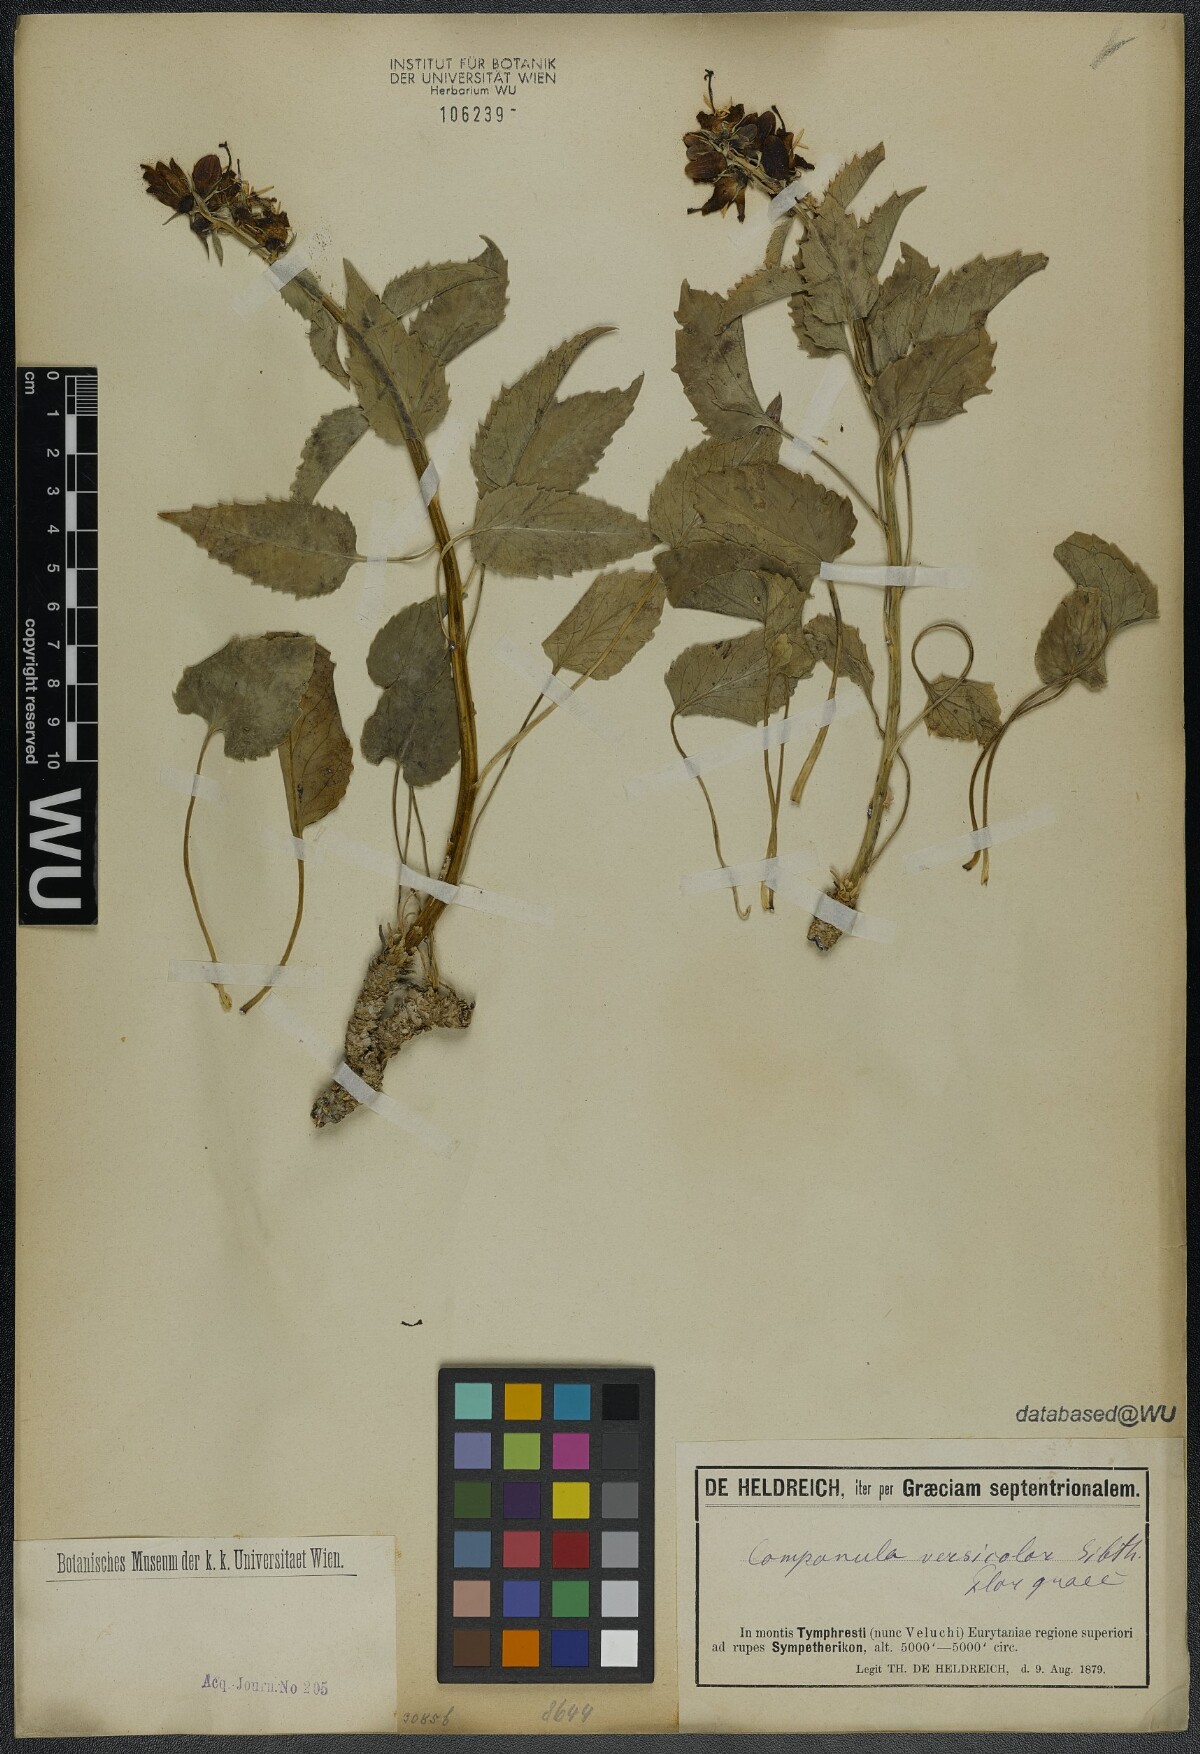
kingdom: Plantae
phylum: Tracheophyta
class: Magnoliopsida
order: Asterales
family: Campanulaceae
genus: Campanula
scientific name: Campanula versicolor
